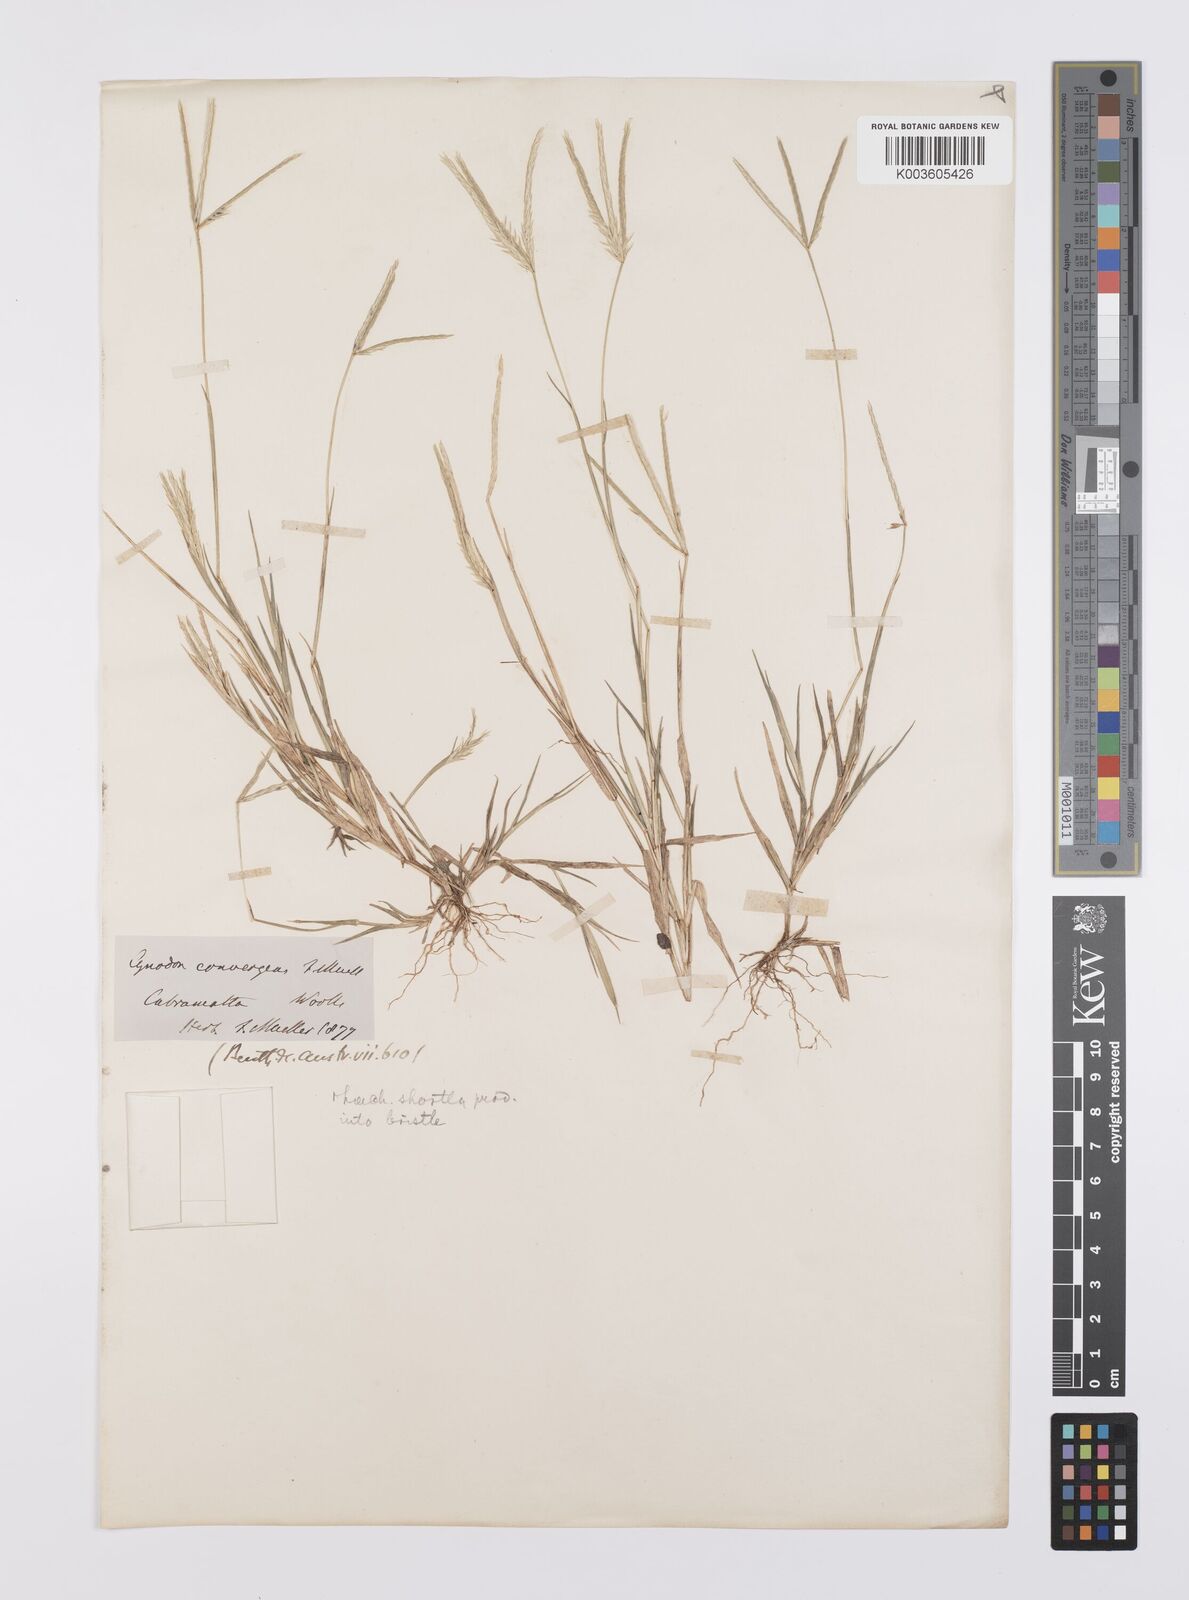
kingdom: Plantae
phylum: Tracheophyta
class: Liliopsida
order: Poales
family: Poaceae
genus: Cynodon
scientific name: Cynodon convergens
